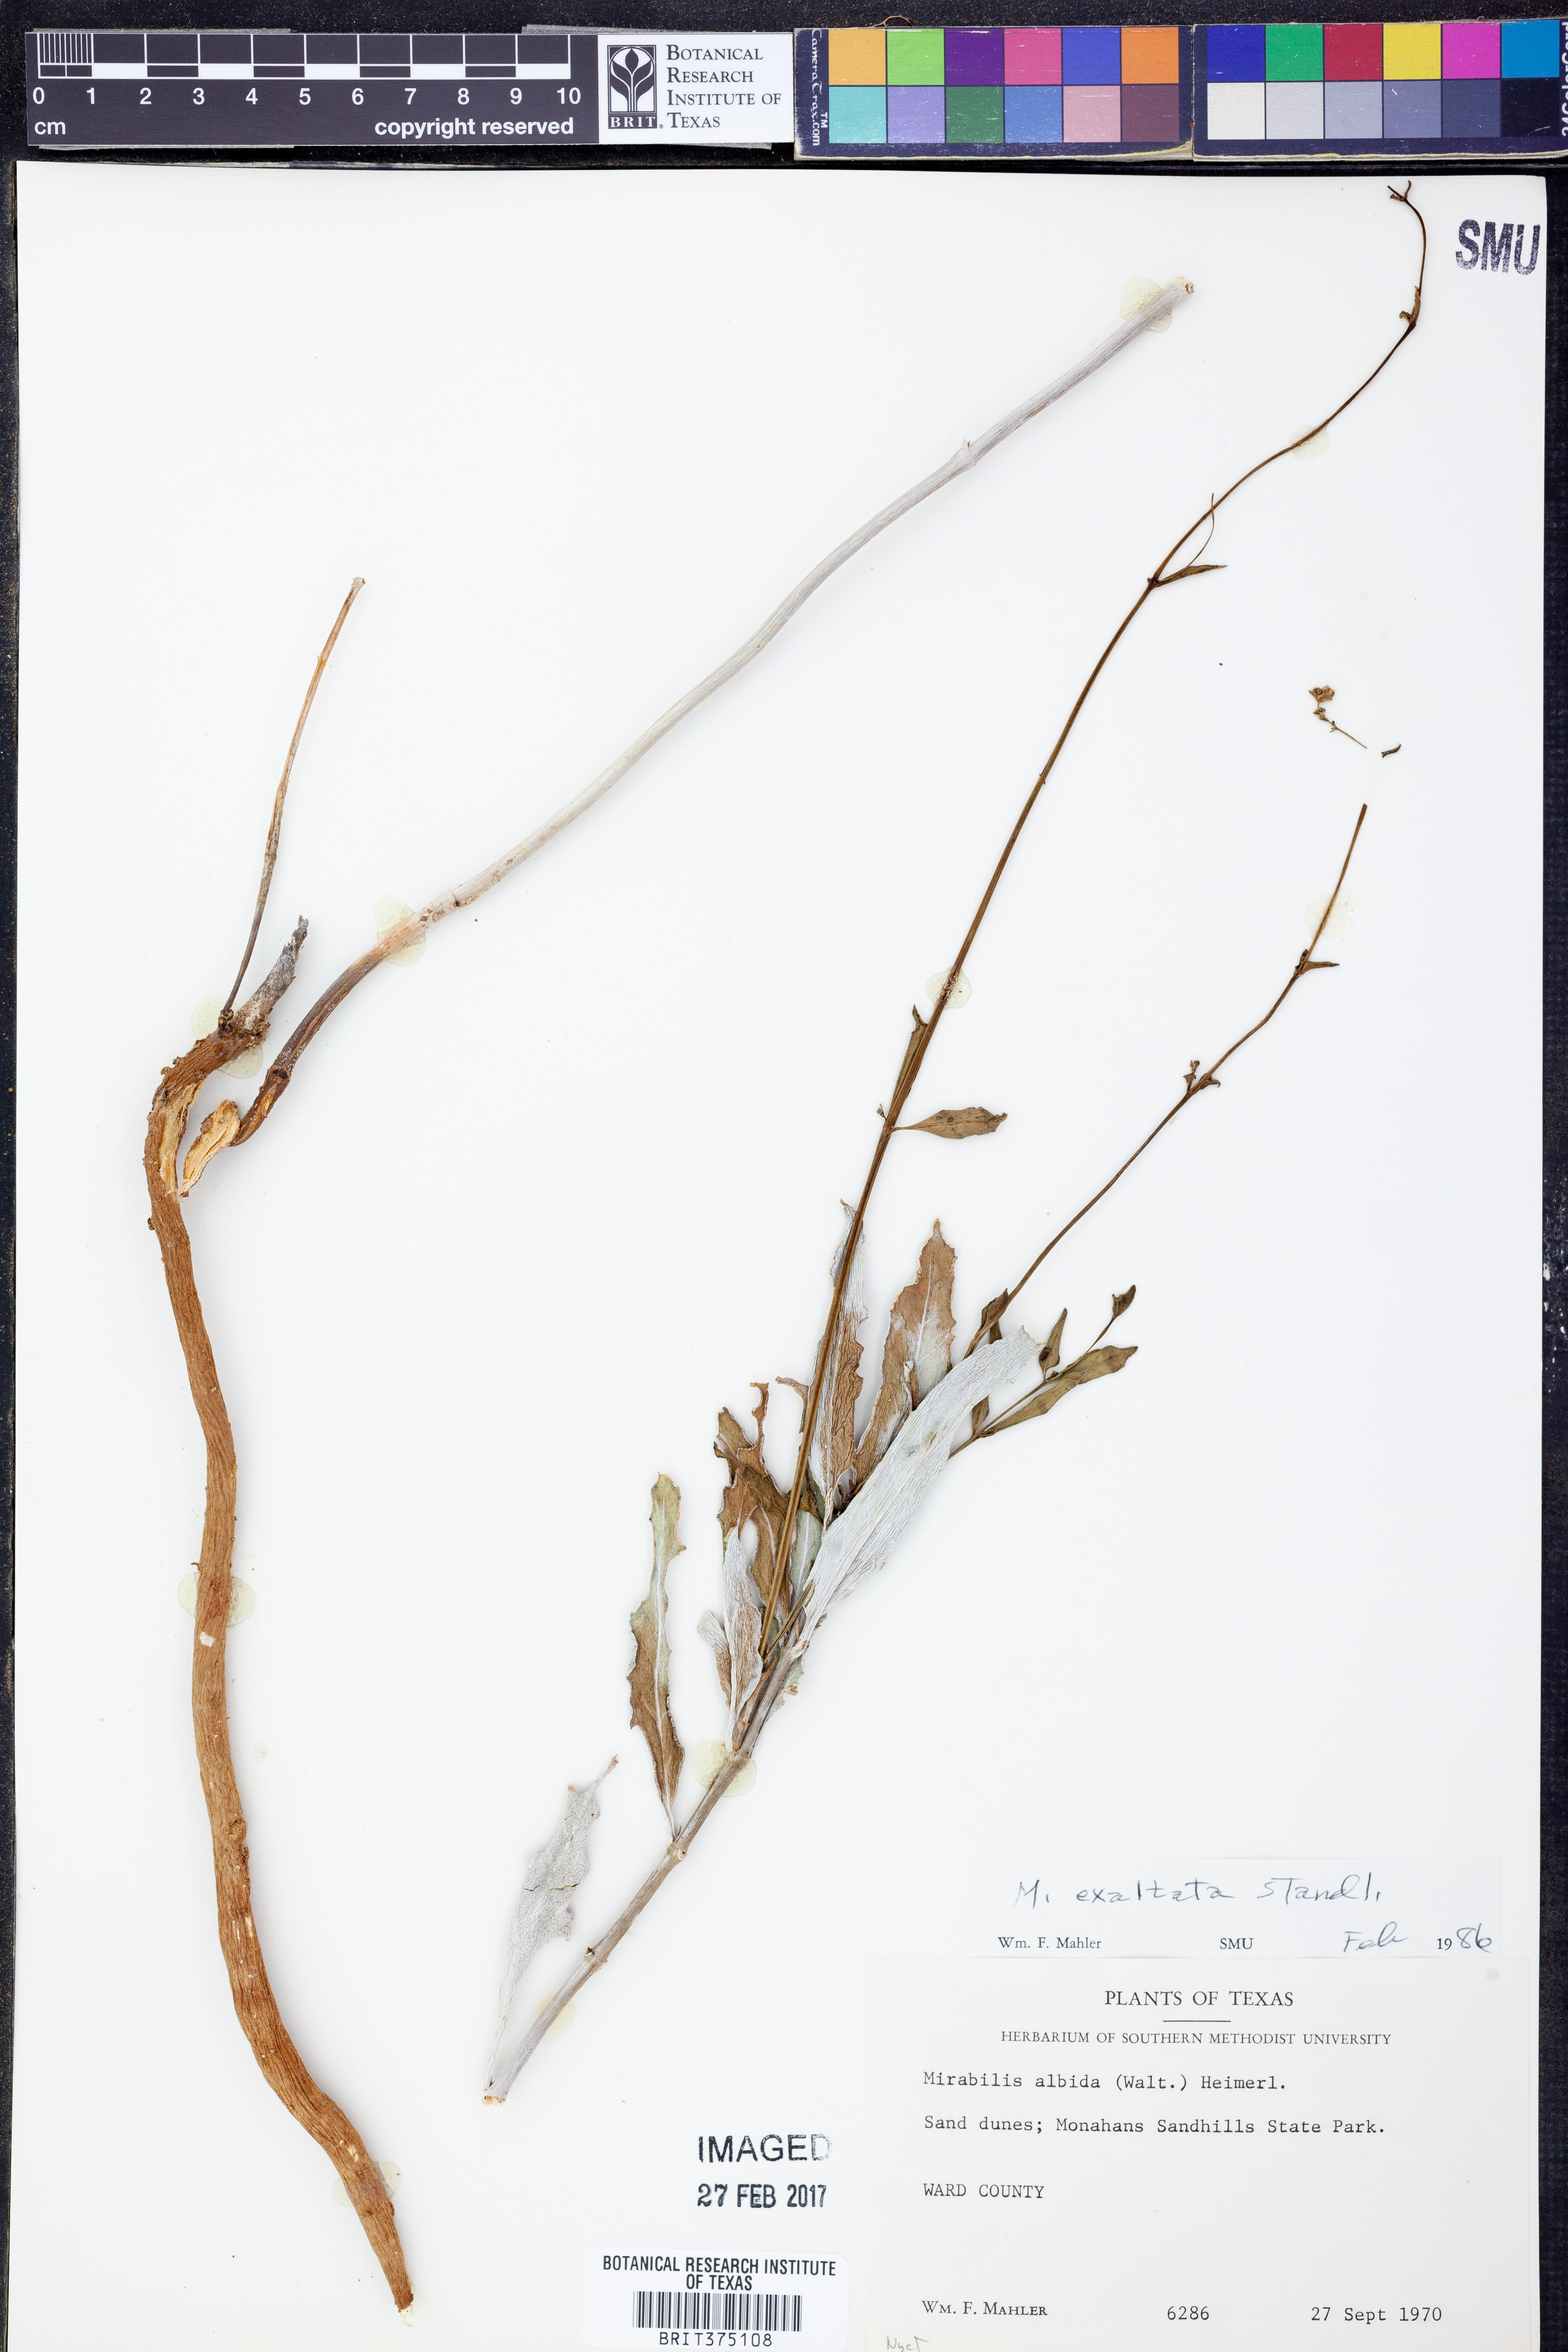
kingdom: Plantae
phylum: Tracheophyta
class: Magnoliopsida
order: Caryophyllales
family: Nyctaginaceae
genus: Mirabilis
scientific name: Mirabilis glabra
